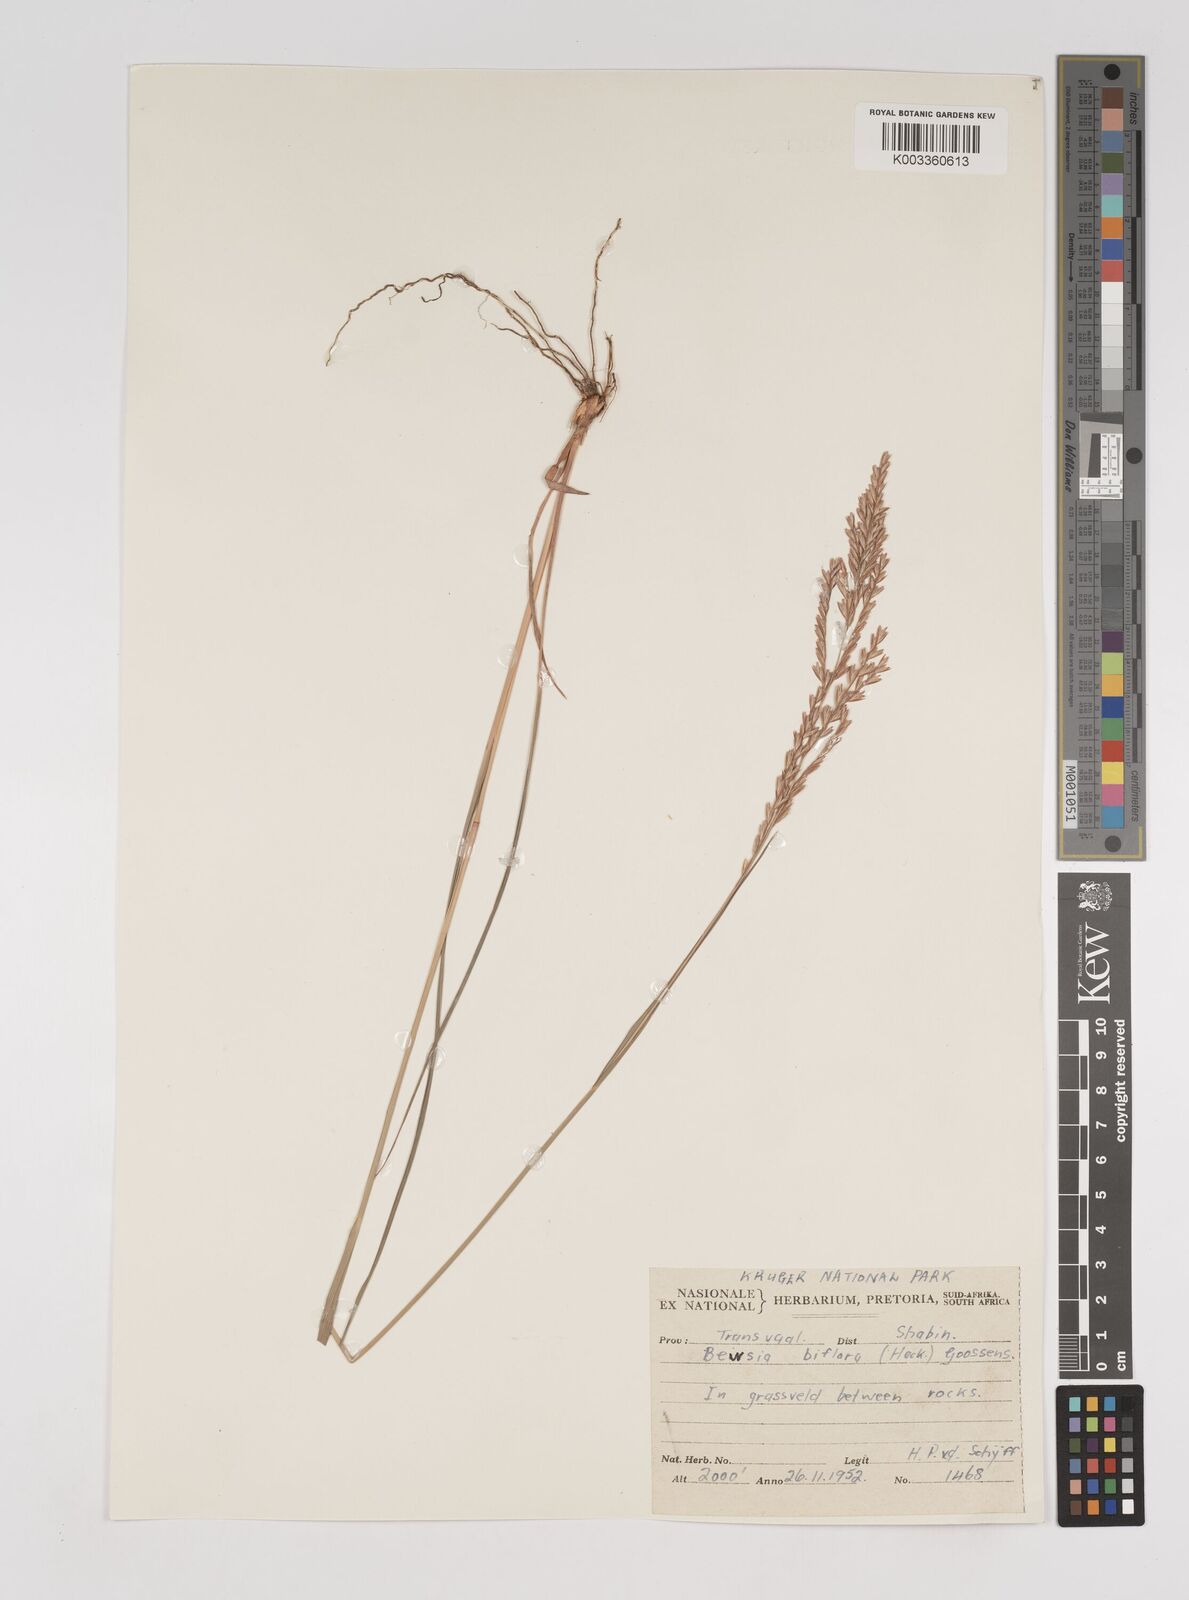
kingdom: Plantae
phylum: Tracheophyta
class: Liliopsida
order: Poales
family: Poaceae
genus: Bewsia
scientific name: Bewsia biflora
